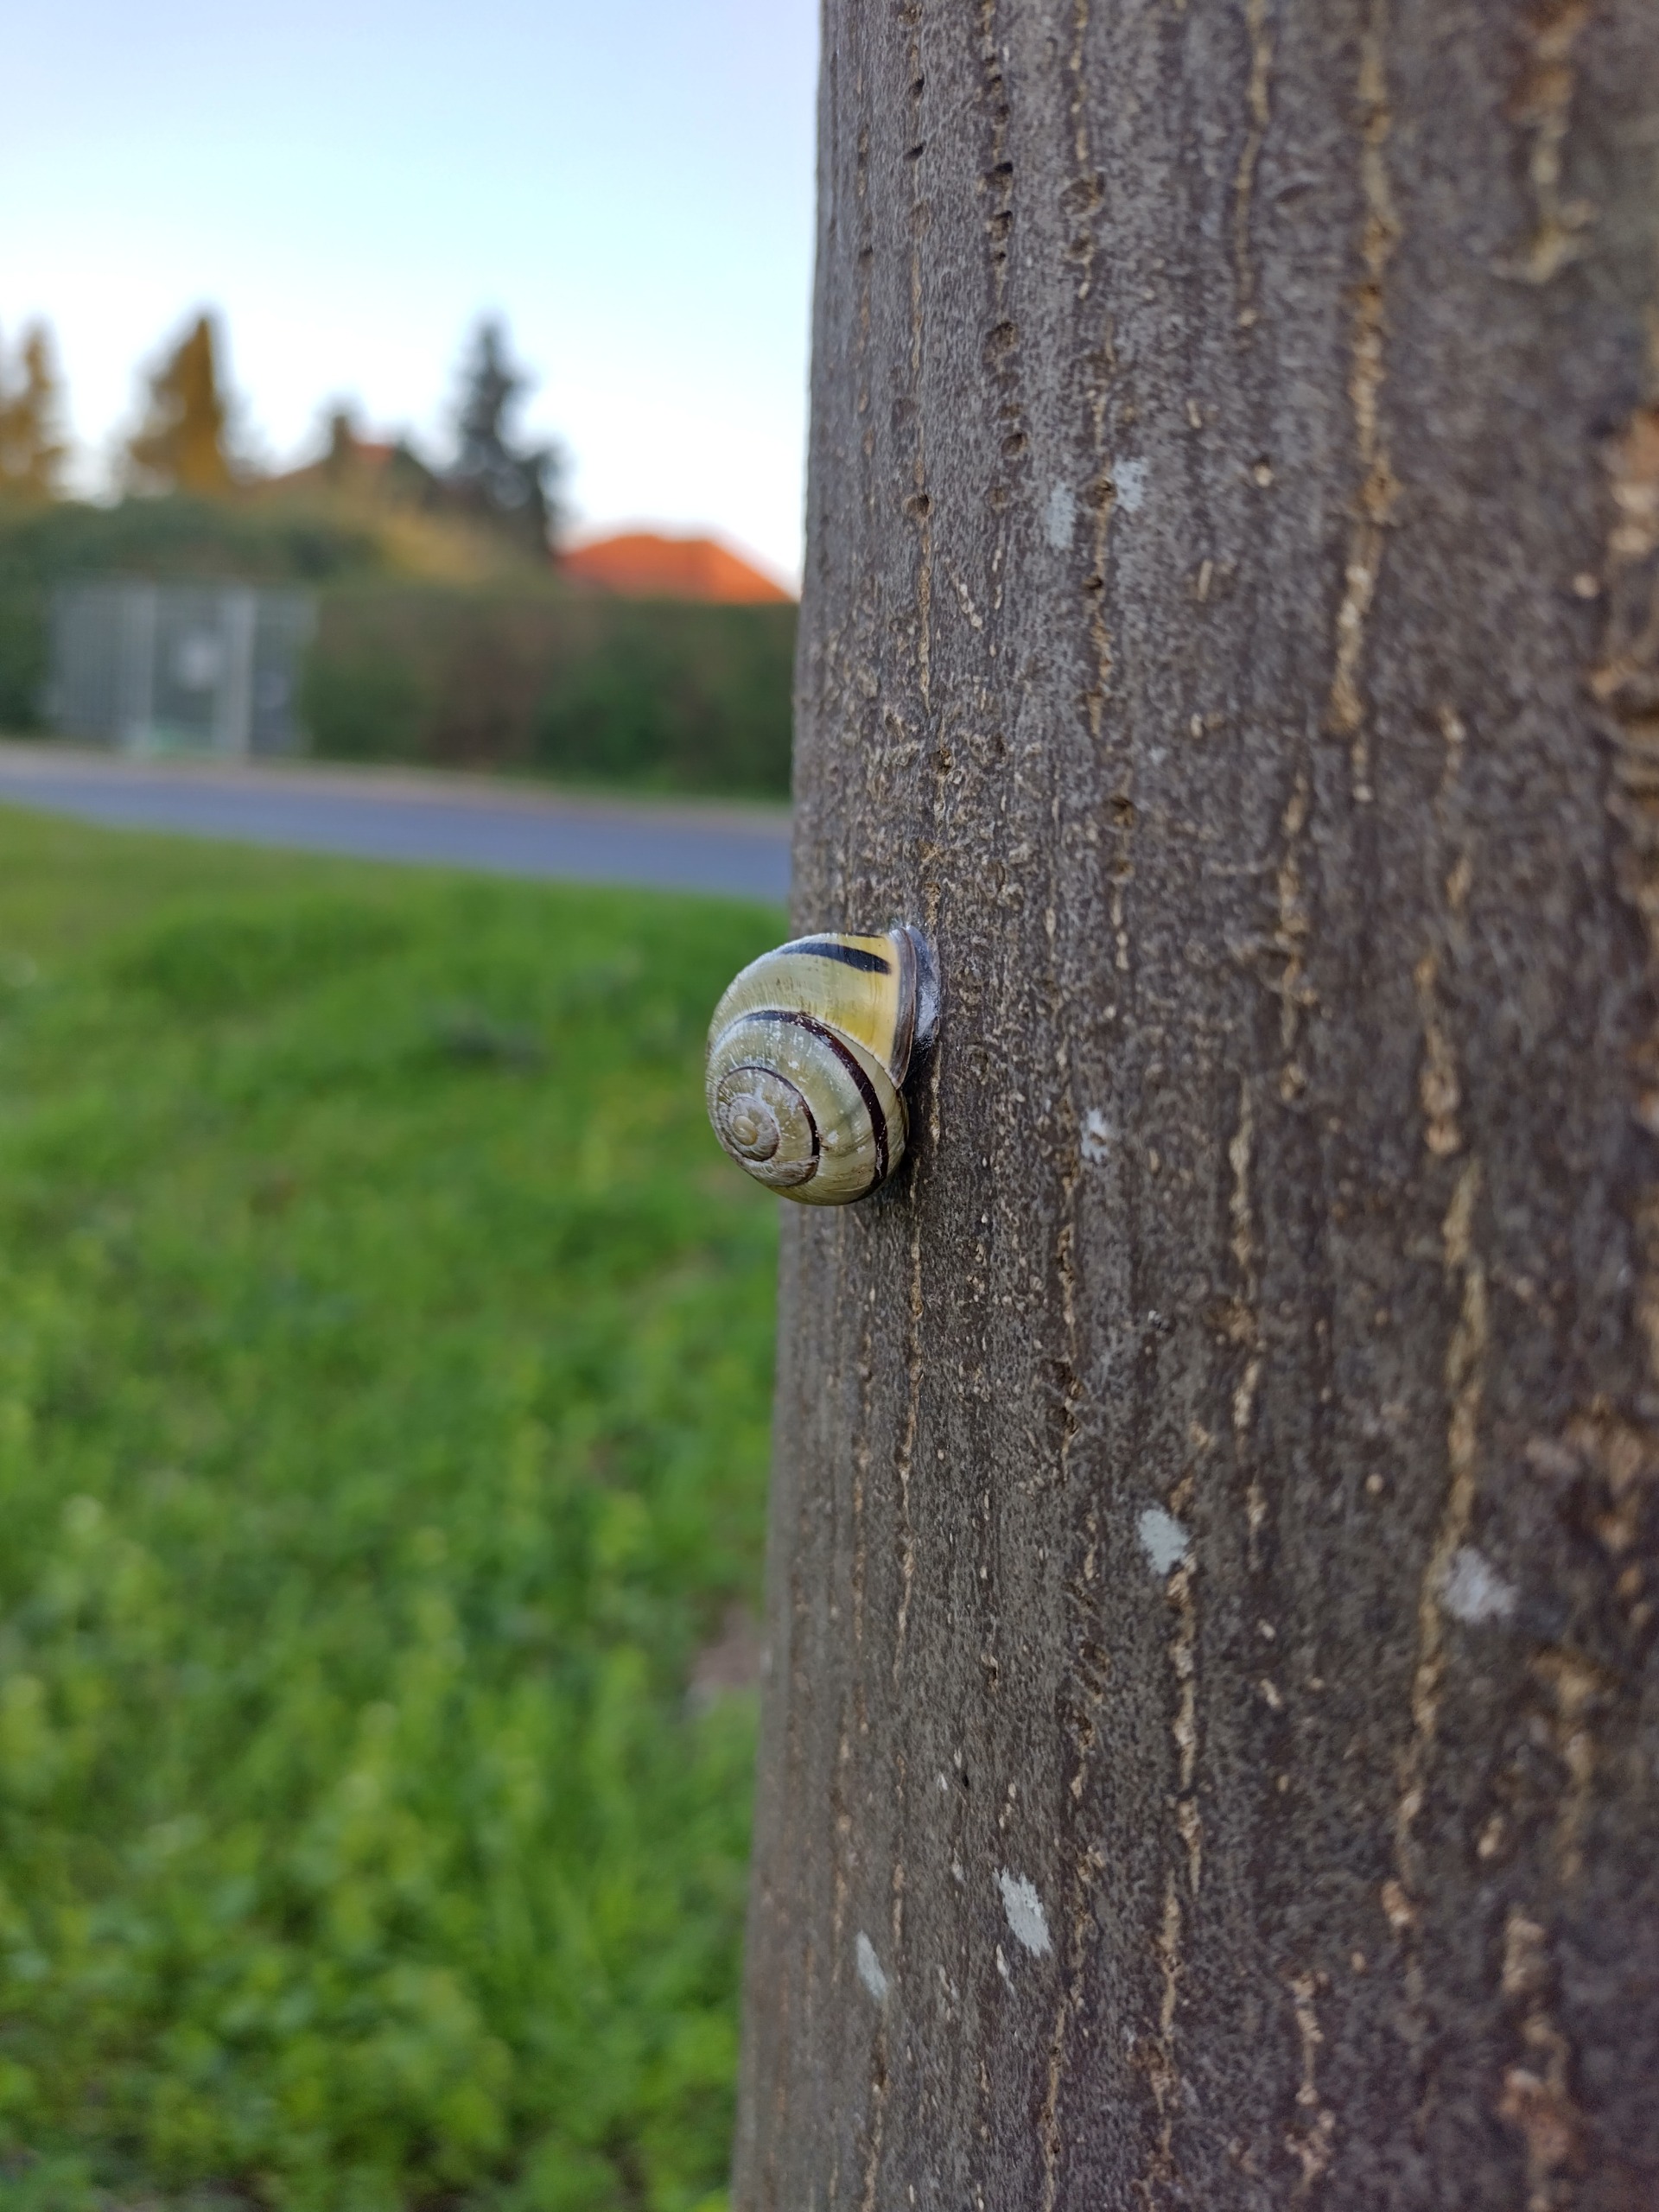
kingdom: Animalia
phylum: Mollusca
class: Gastropoda
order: Stylommatophora
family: Helicidae
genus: Cepaea
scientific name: Cepaea nemoralis
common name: Lundsnegl
